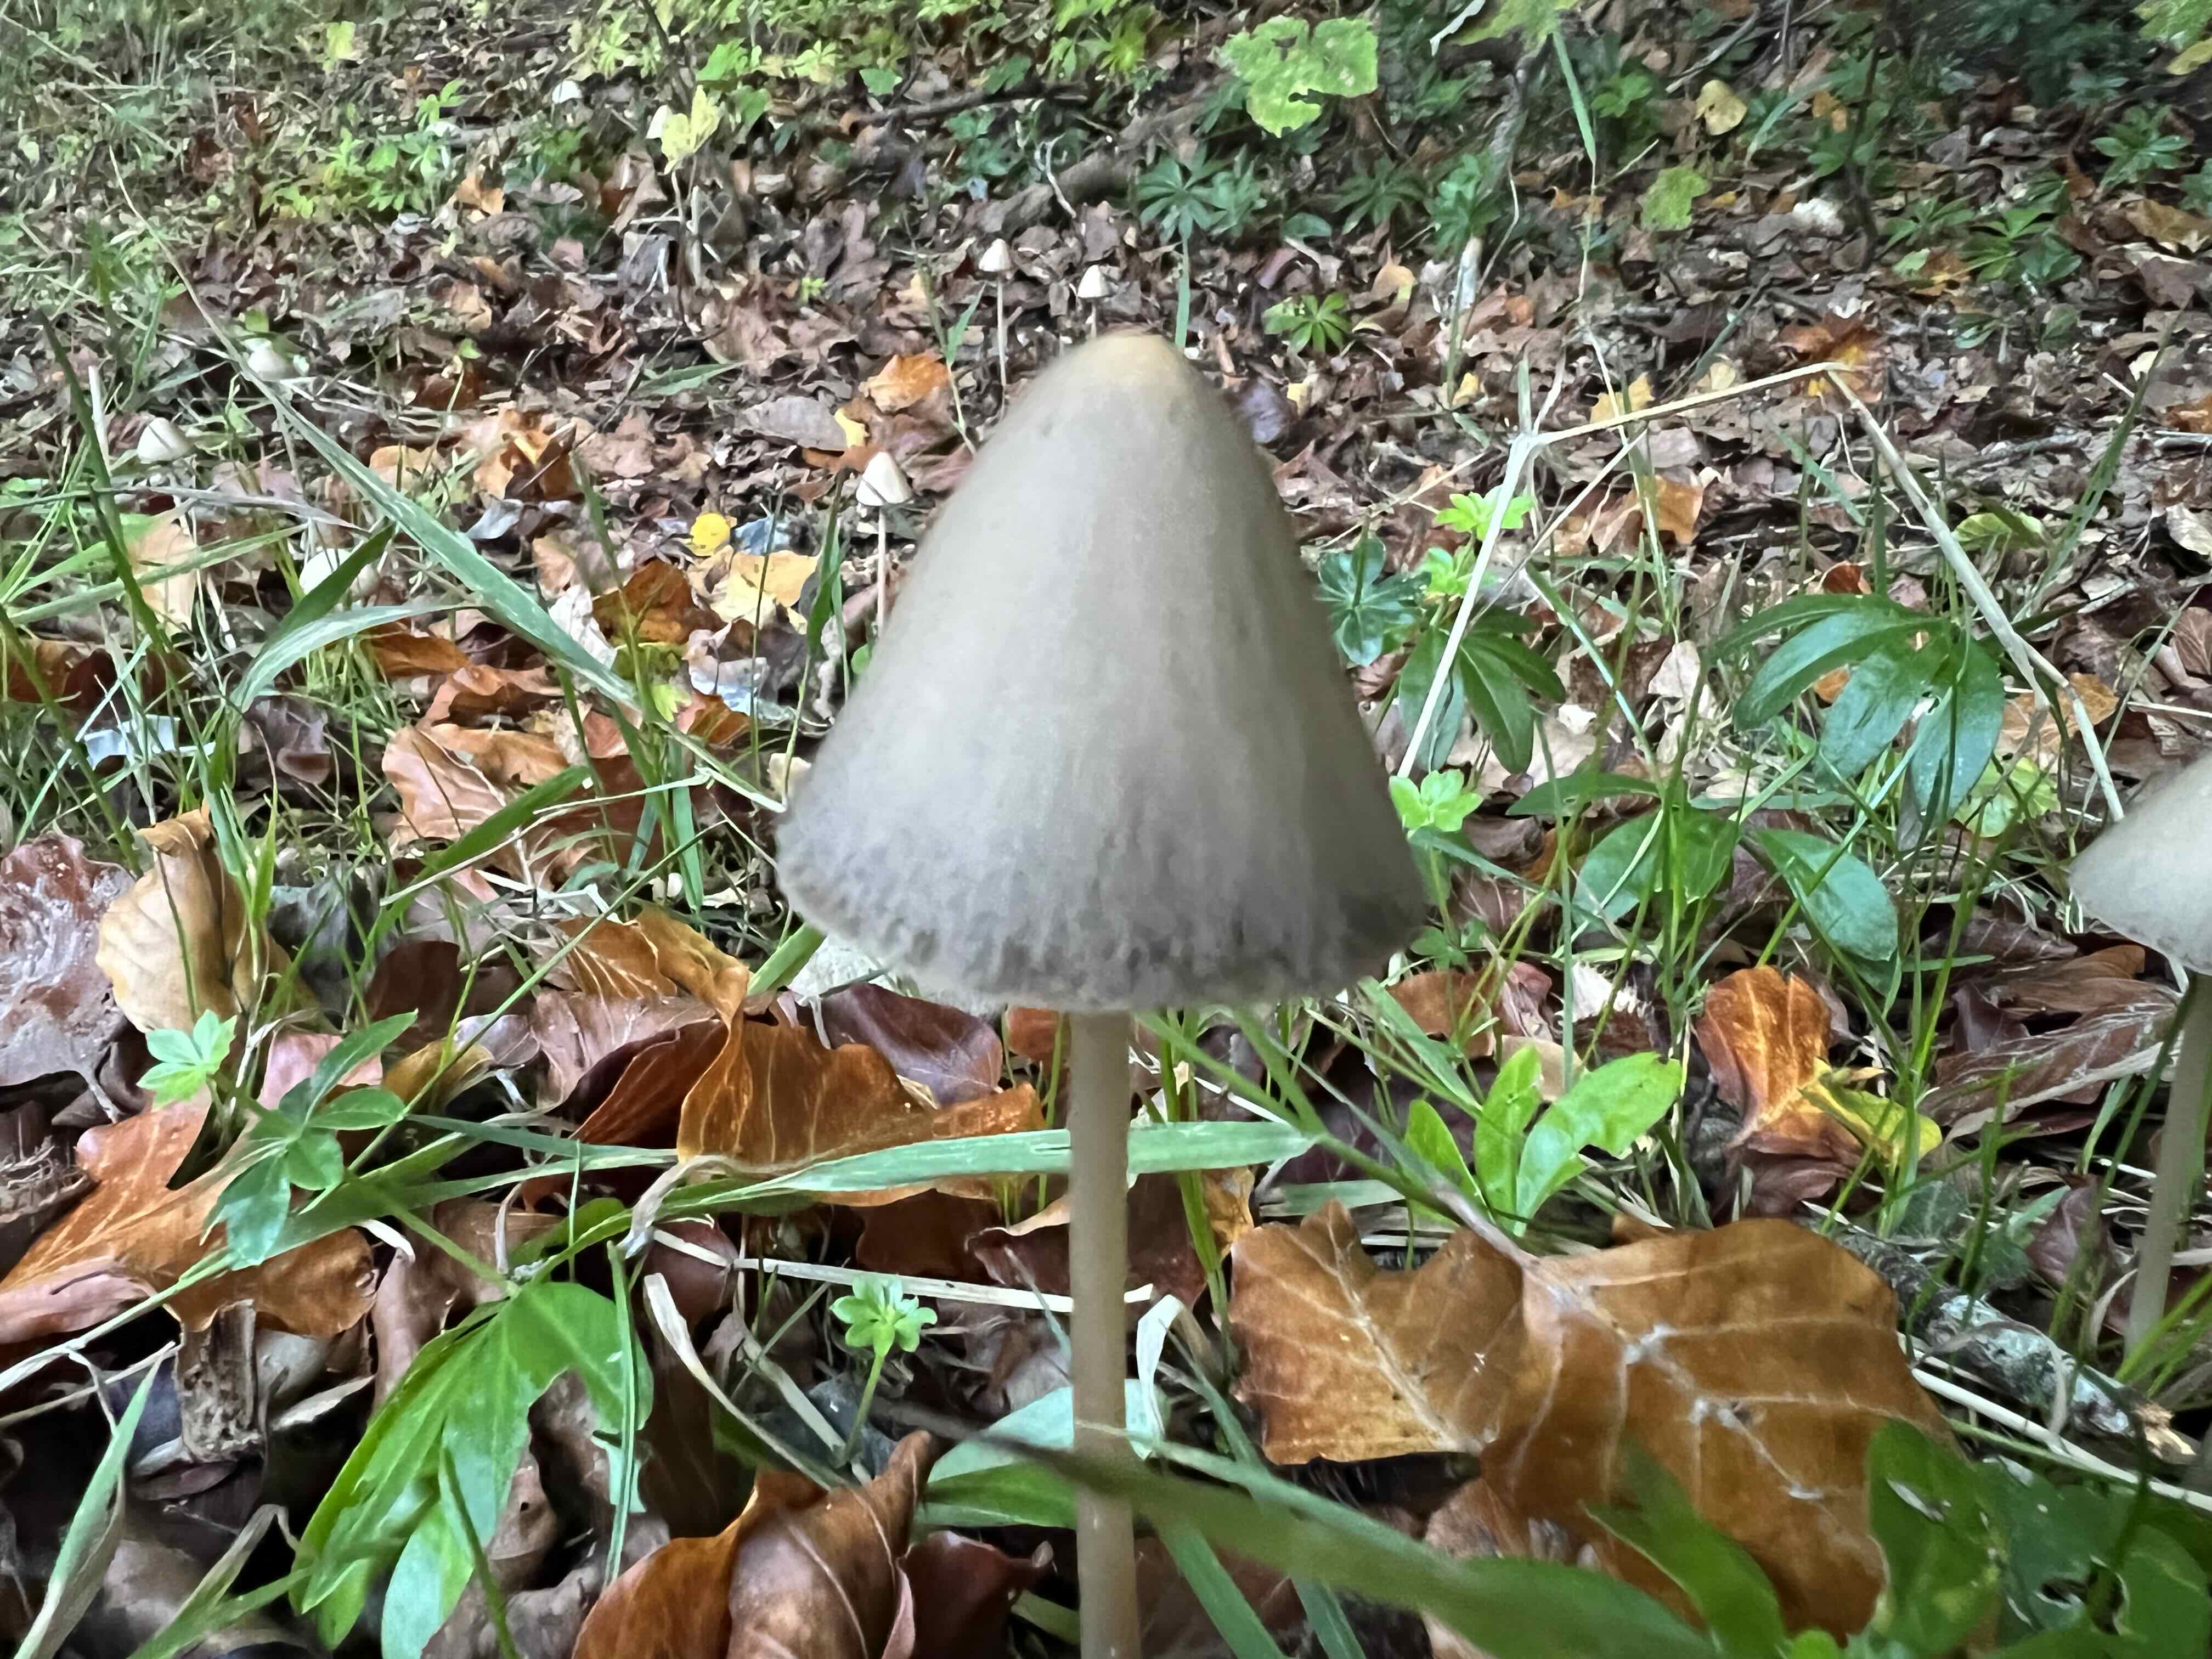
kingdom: Fungi
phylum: Basidiomycota
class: Agaricomycetes
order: Agaricales
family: Psathyrellaceae
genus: Parasola
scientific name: Parasola conopilea
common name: kegle-hjulhat
